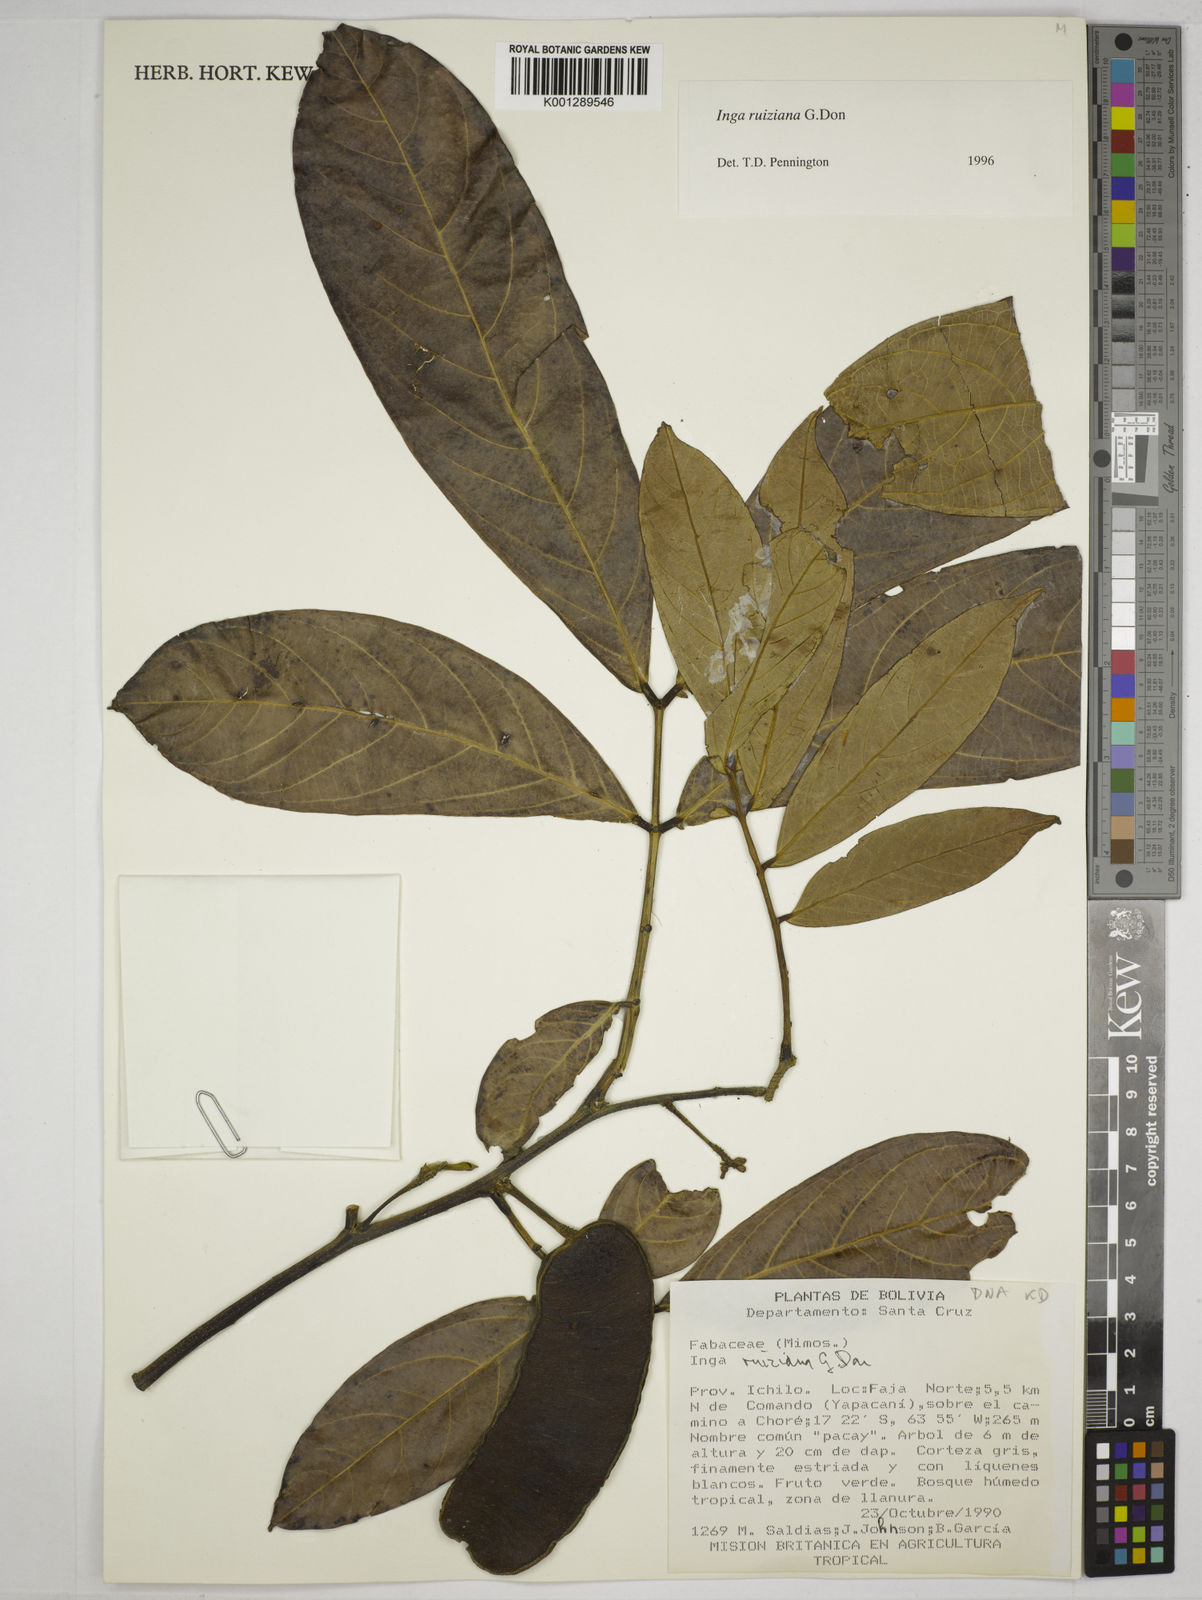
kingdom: Plantae
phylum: Tracheophyta
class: Magnoliopsida
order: Fabales
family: Fabaceae
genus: Inga
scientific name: Inga ruiziana
